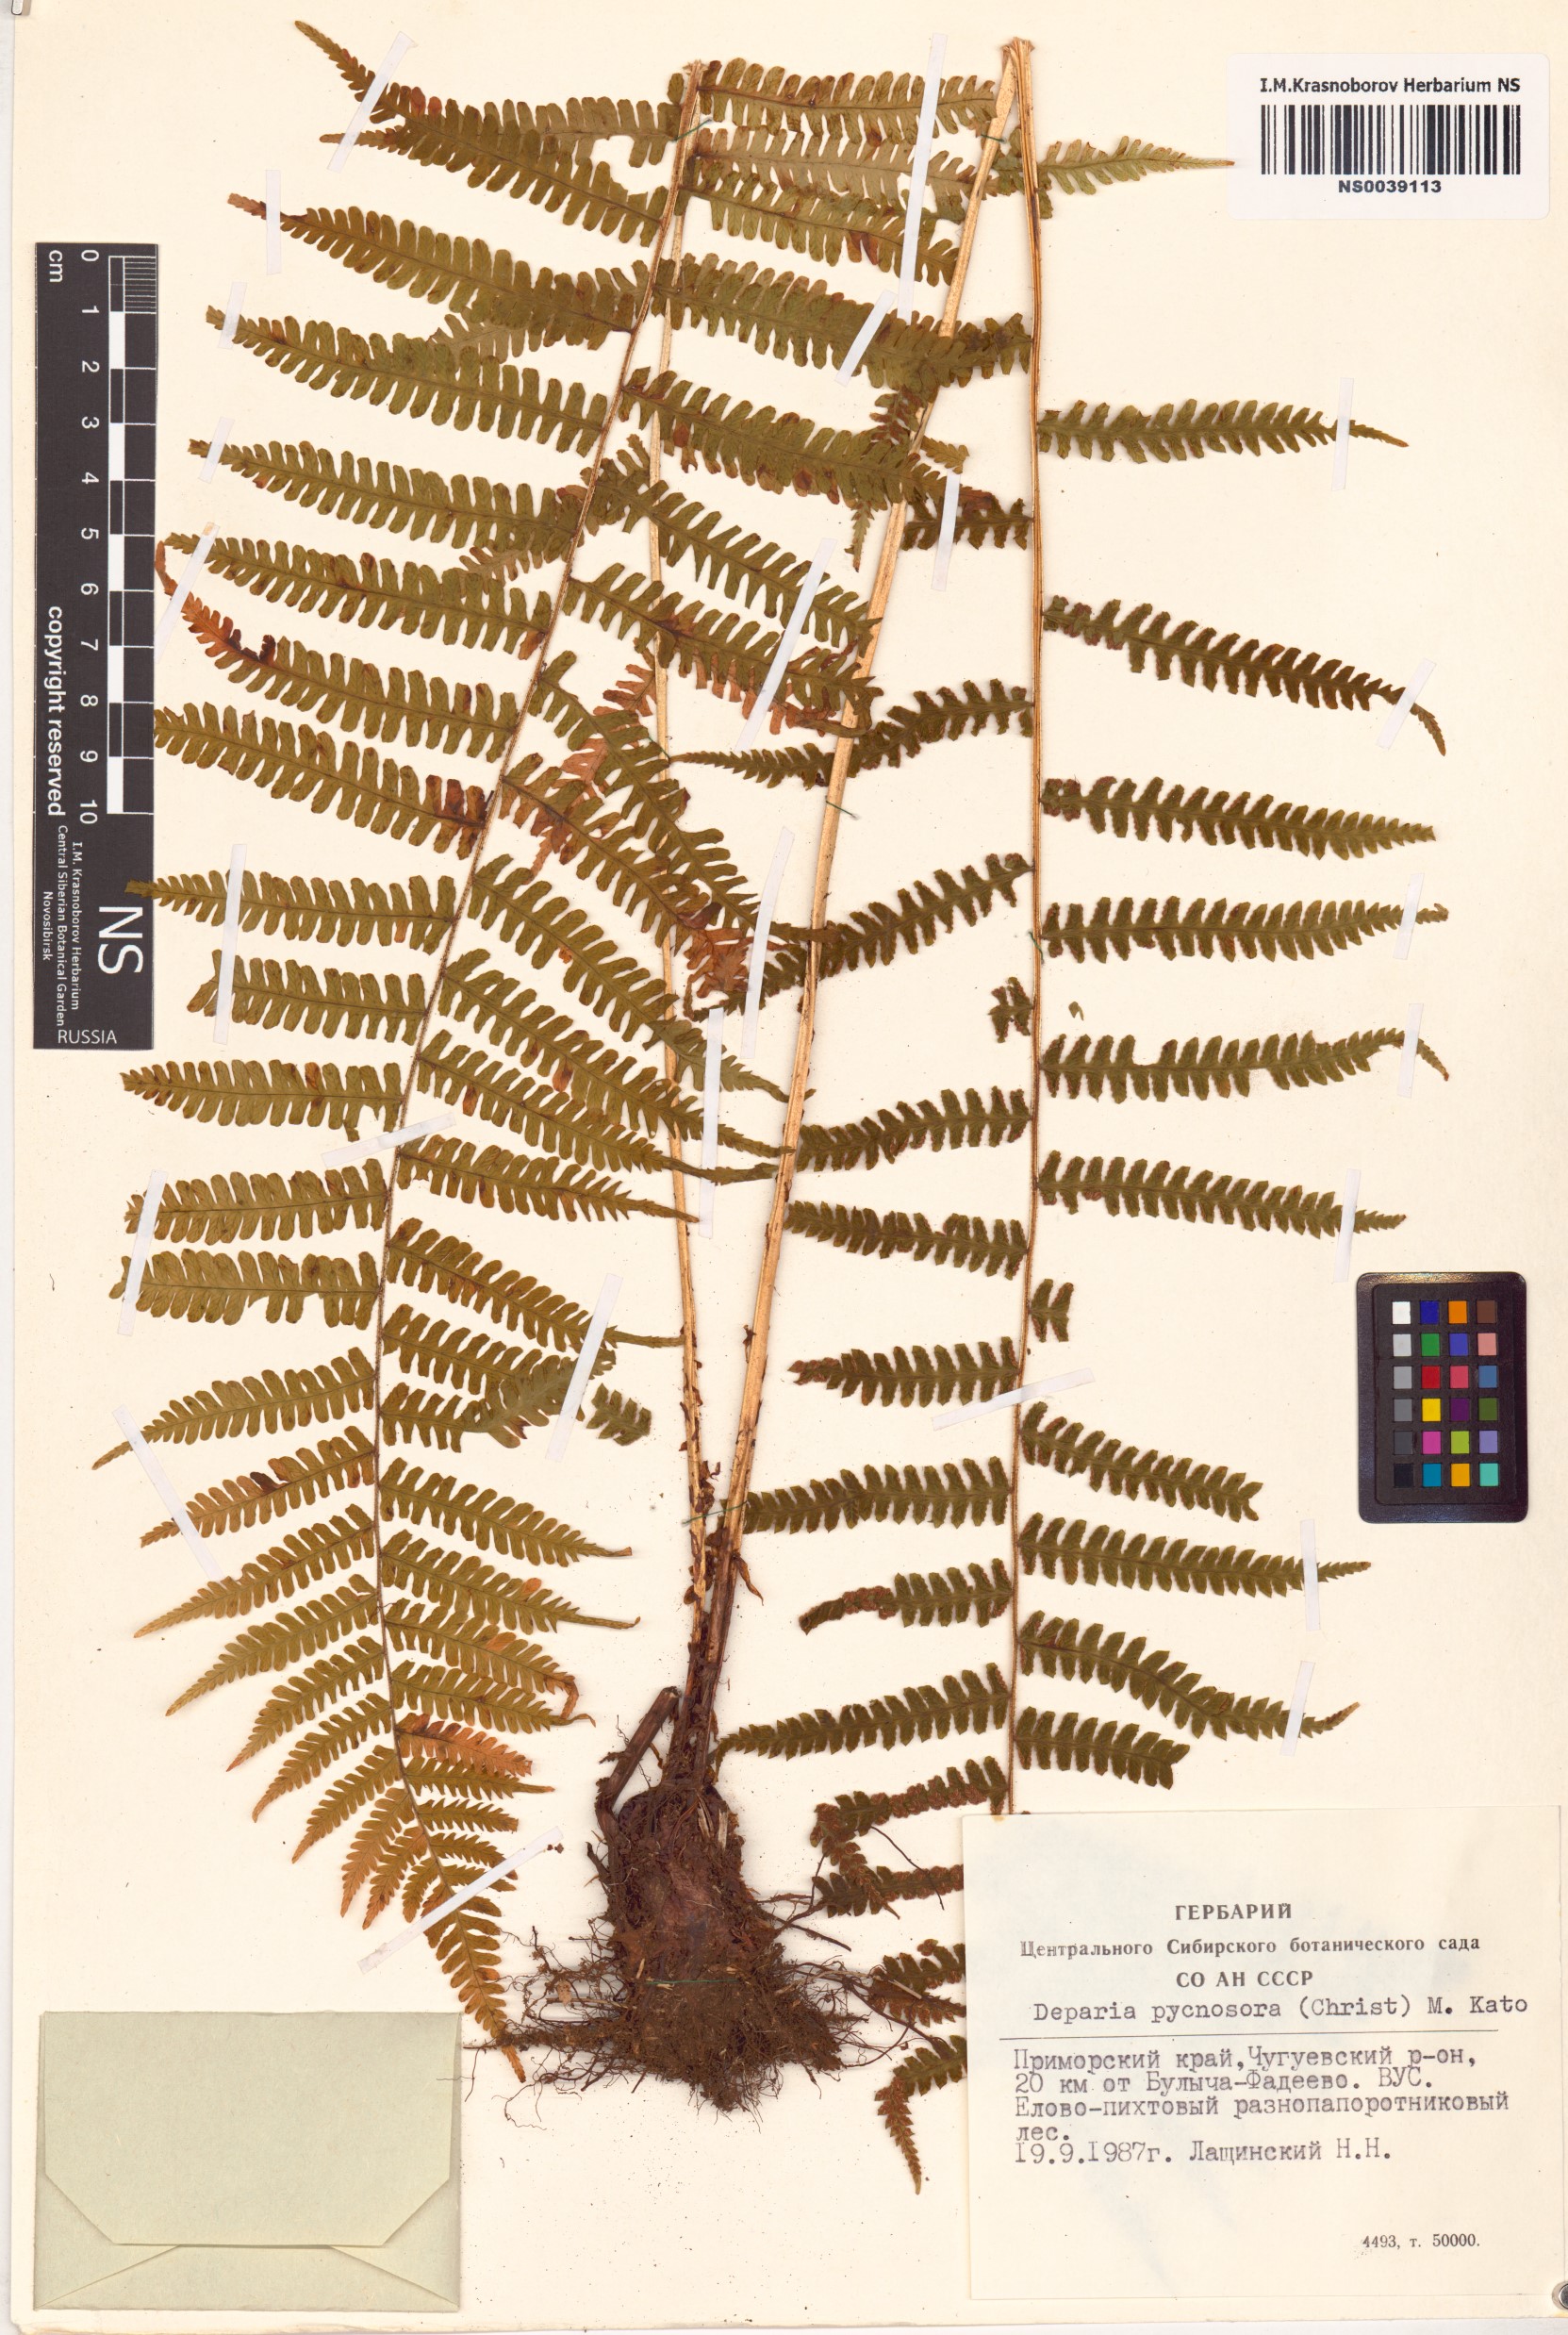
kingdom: Plantae
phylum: Tracheophyta
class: Polypodiopsida
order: Polypodiales
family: Athyriaceae
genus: Deparia
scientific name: Deparia pycnosora
